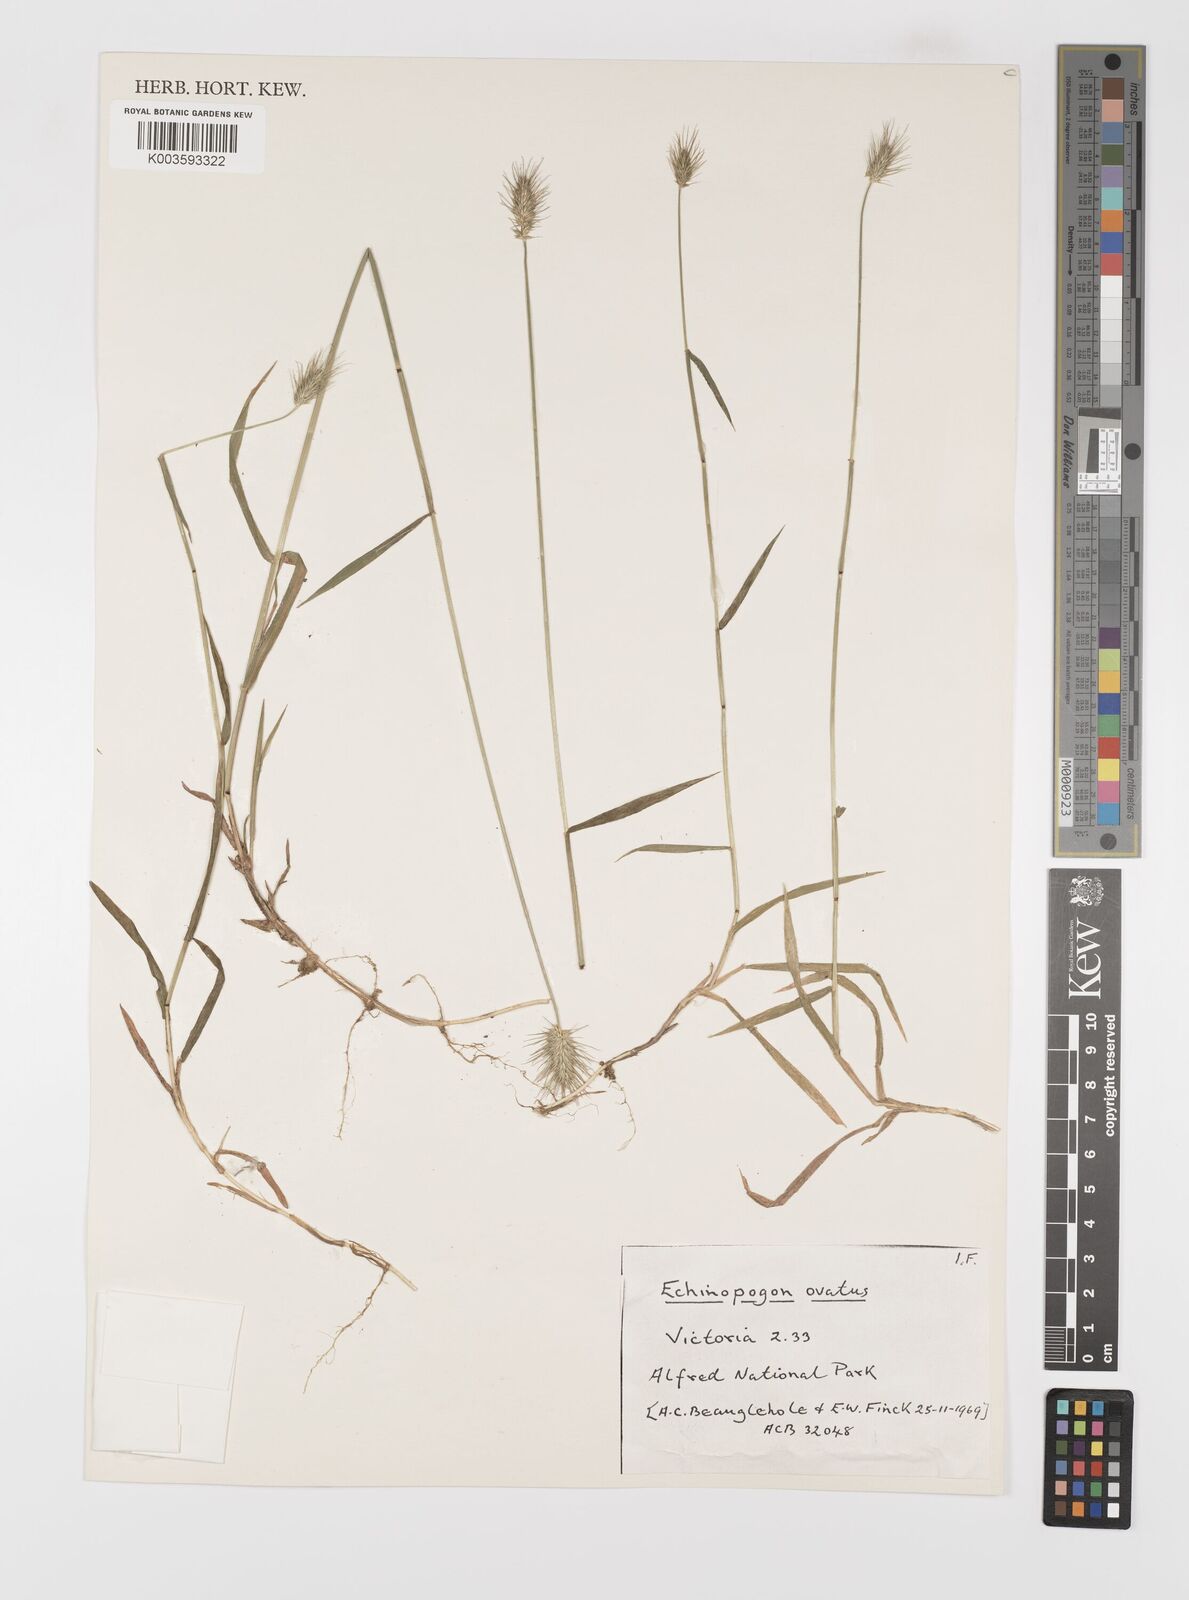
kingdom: Plantae
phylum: Tracheophyta
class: Liliopsida
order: Poales
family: Poaceae
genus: Echinopogon
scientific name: Echinopogon ovatus
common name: Hedgehog-grass
